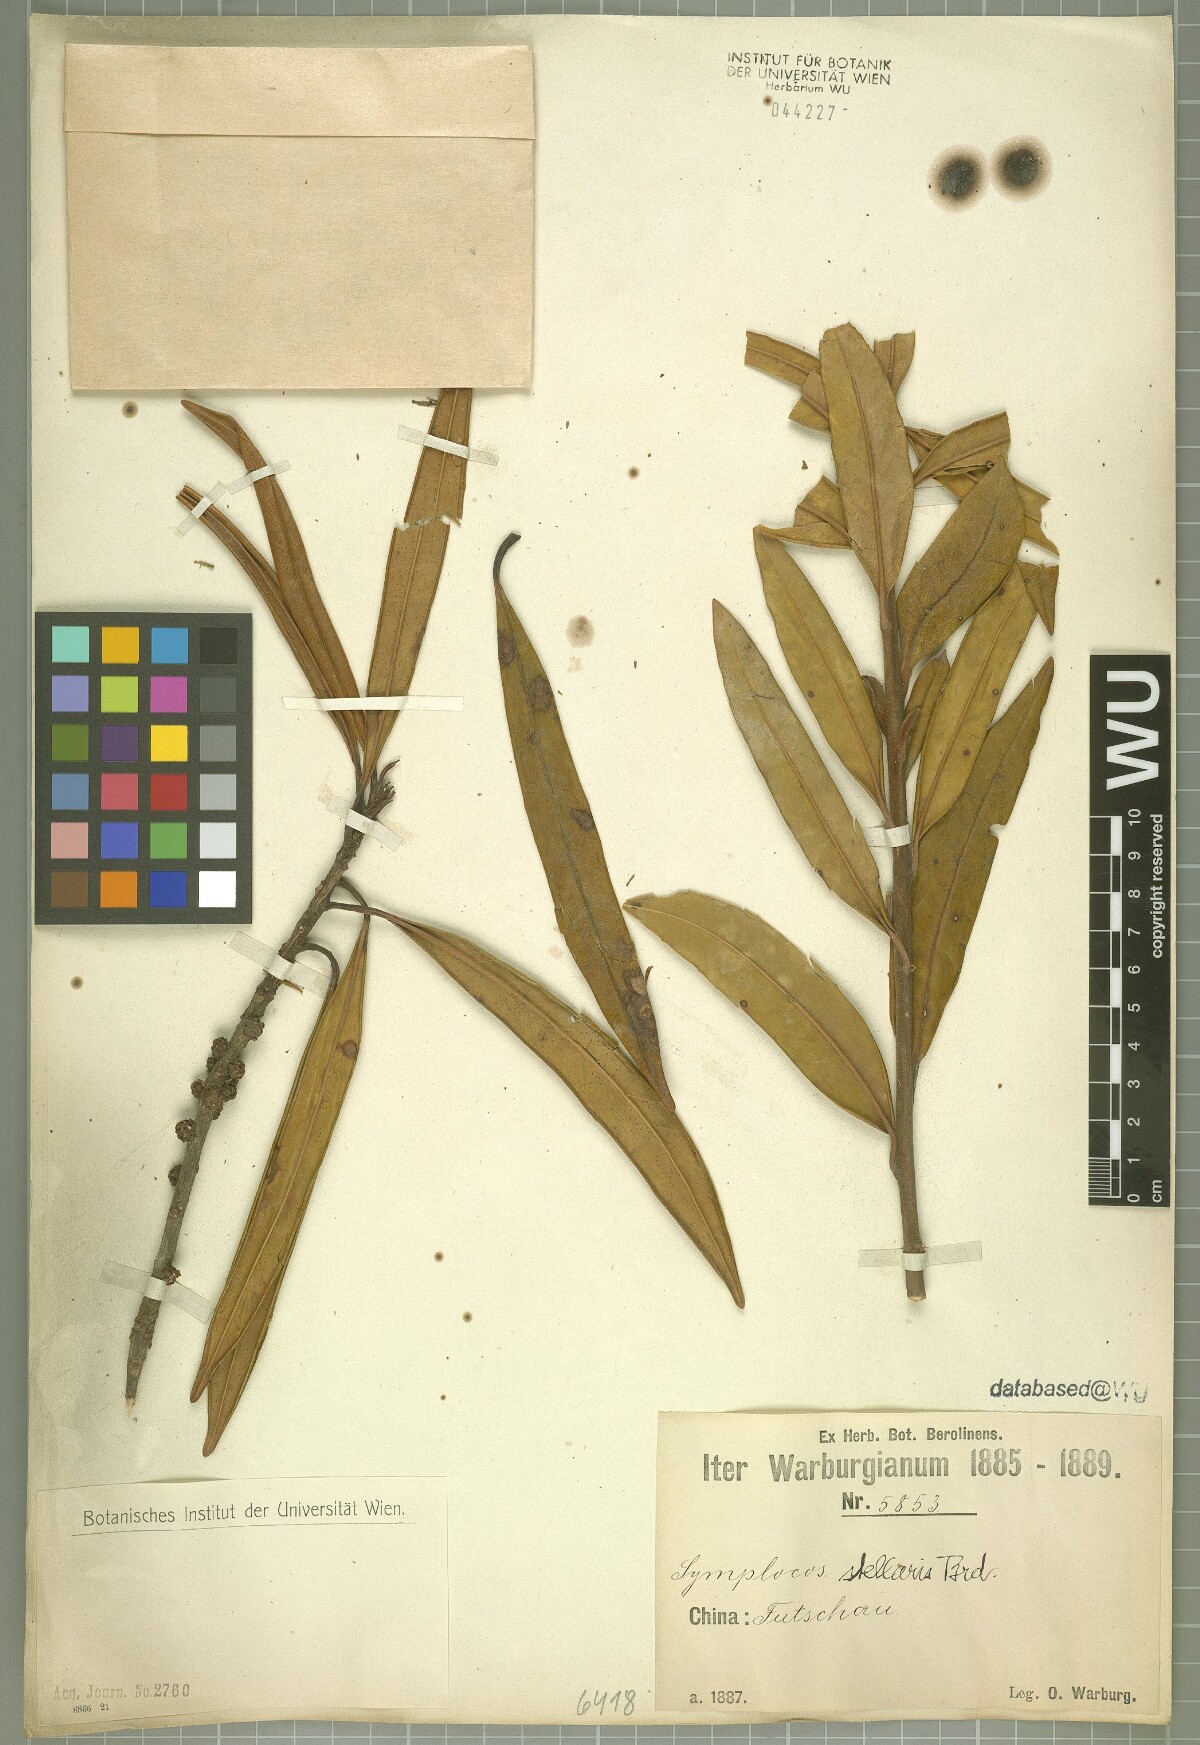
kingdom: Plantae
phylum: Tracheophyta
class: Magnoliopsida
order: Ericales
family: Symplocaceae
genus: Symplocos
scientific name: Symplocos stellaris
